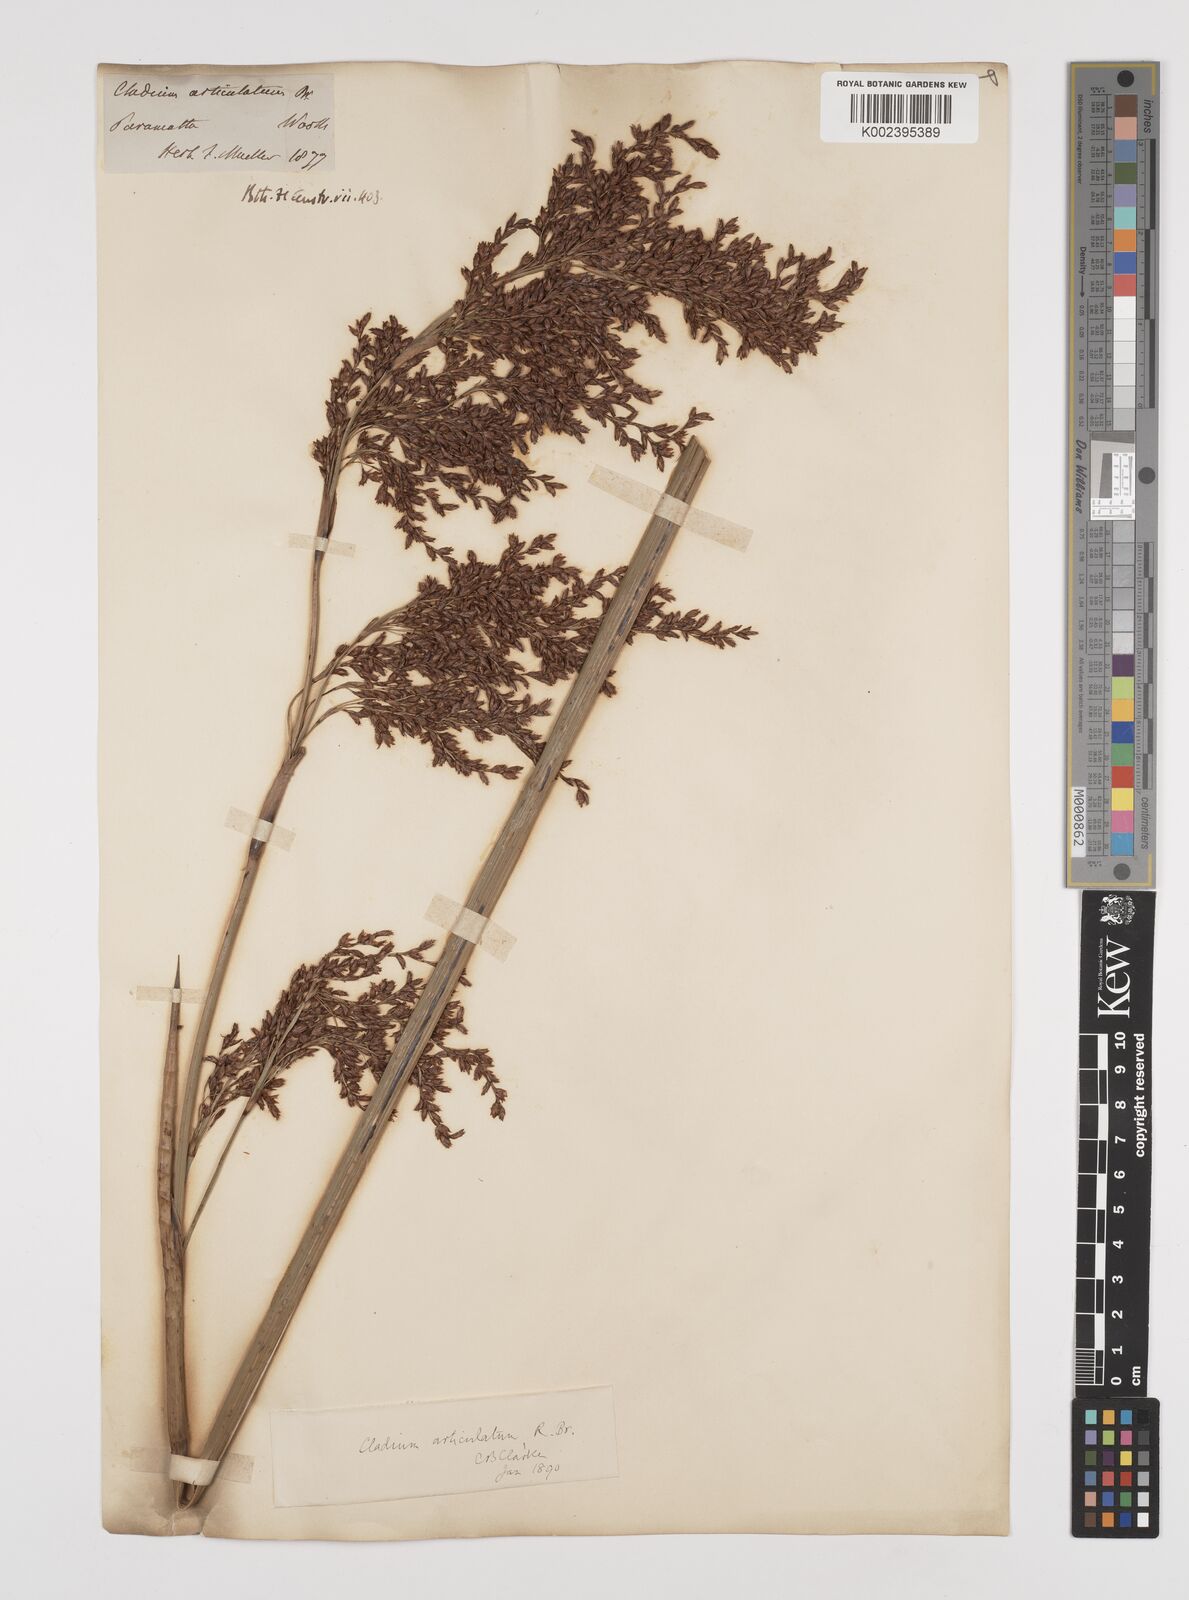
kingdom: Plantae
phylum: Tracheophyta
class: Liliopsida
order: Poales
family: Cyperaceae
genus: Machaerina
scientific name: Machaerina articulata
